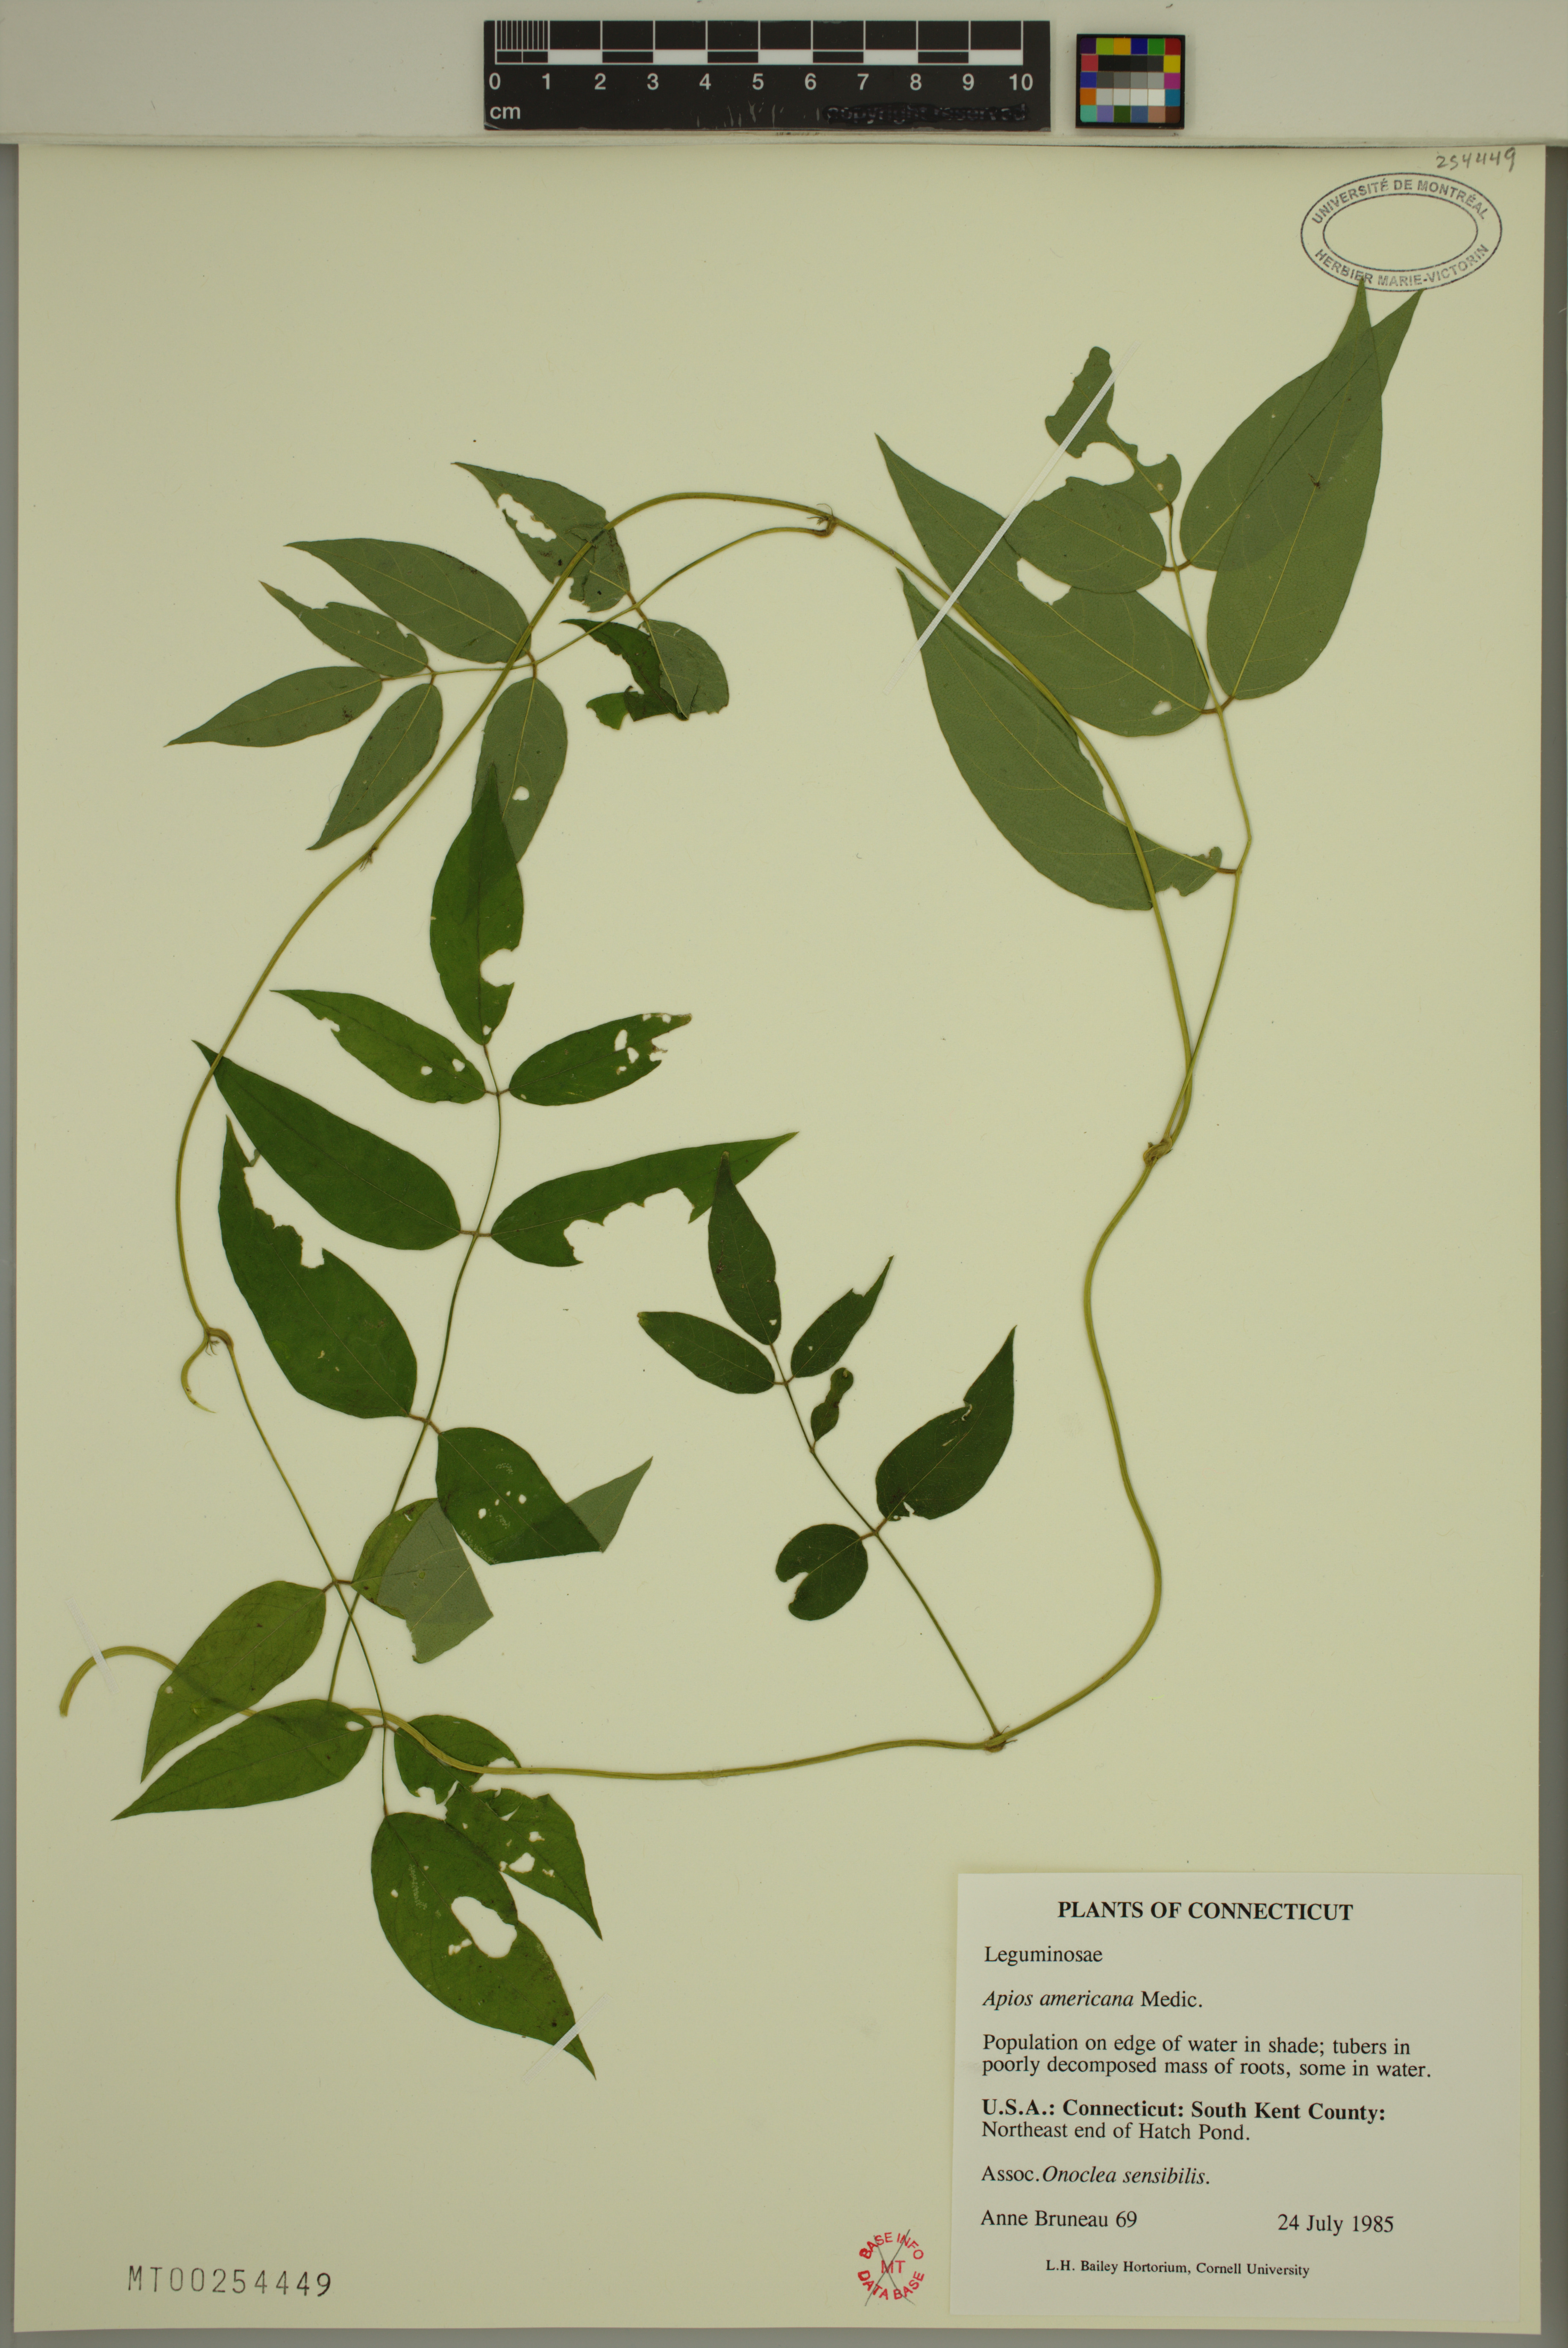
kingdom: Plantae
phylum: Tracheophyta
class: Magnoliopsida
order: Fabales
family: Fabaceae
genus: Apios
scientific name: Apios americana
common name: American potato-bean
